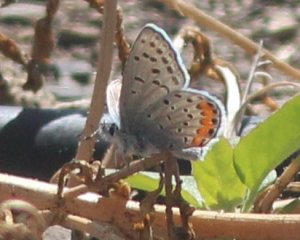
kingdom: Animalia
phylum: Arthropoda
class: Insecta
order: Lepidoptera
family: Lycaenidae
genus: Plebejus
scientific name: Plebejus acmon
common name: Acmon Blue
